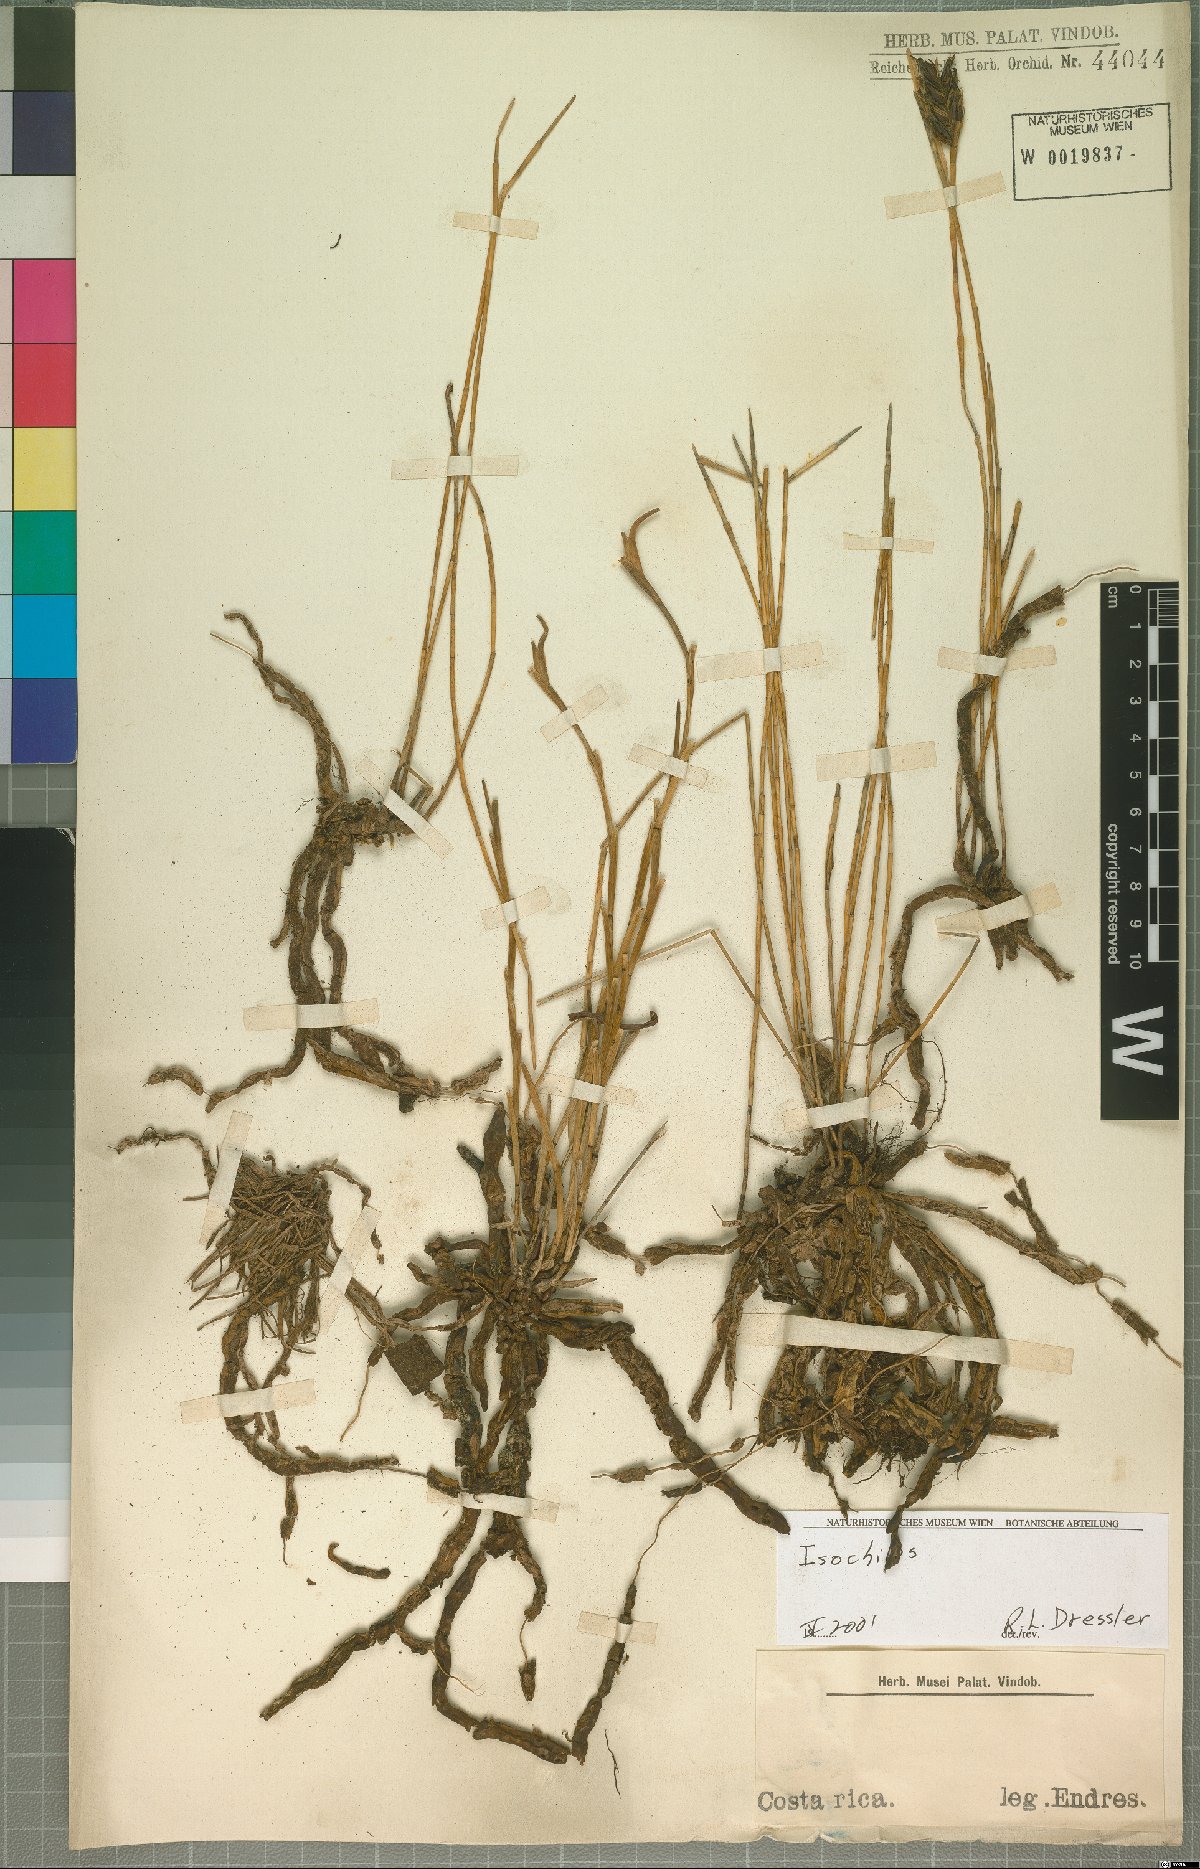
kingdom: Plantae
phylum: Tracheophyta
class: Liliopsida
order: Asparagales
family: Orchidaceae
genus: Isochilus
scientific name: Isochilus
